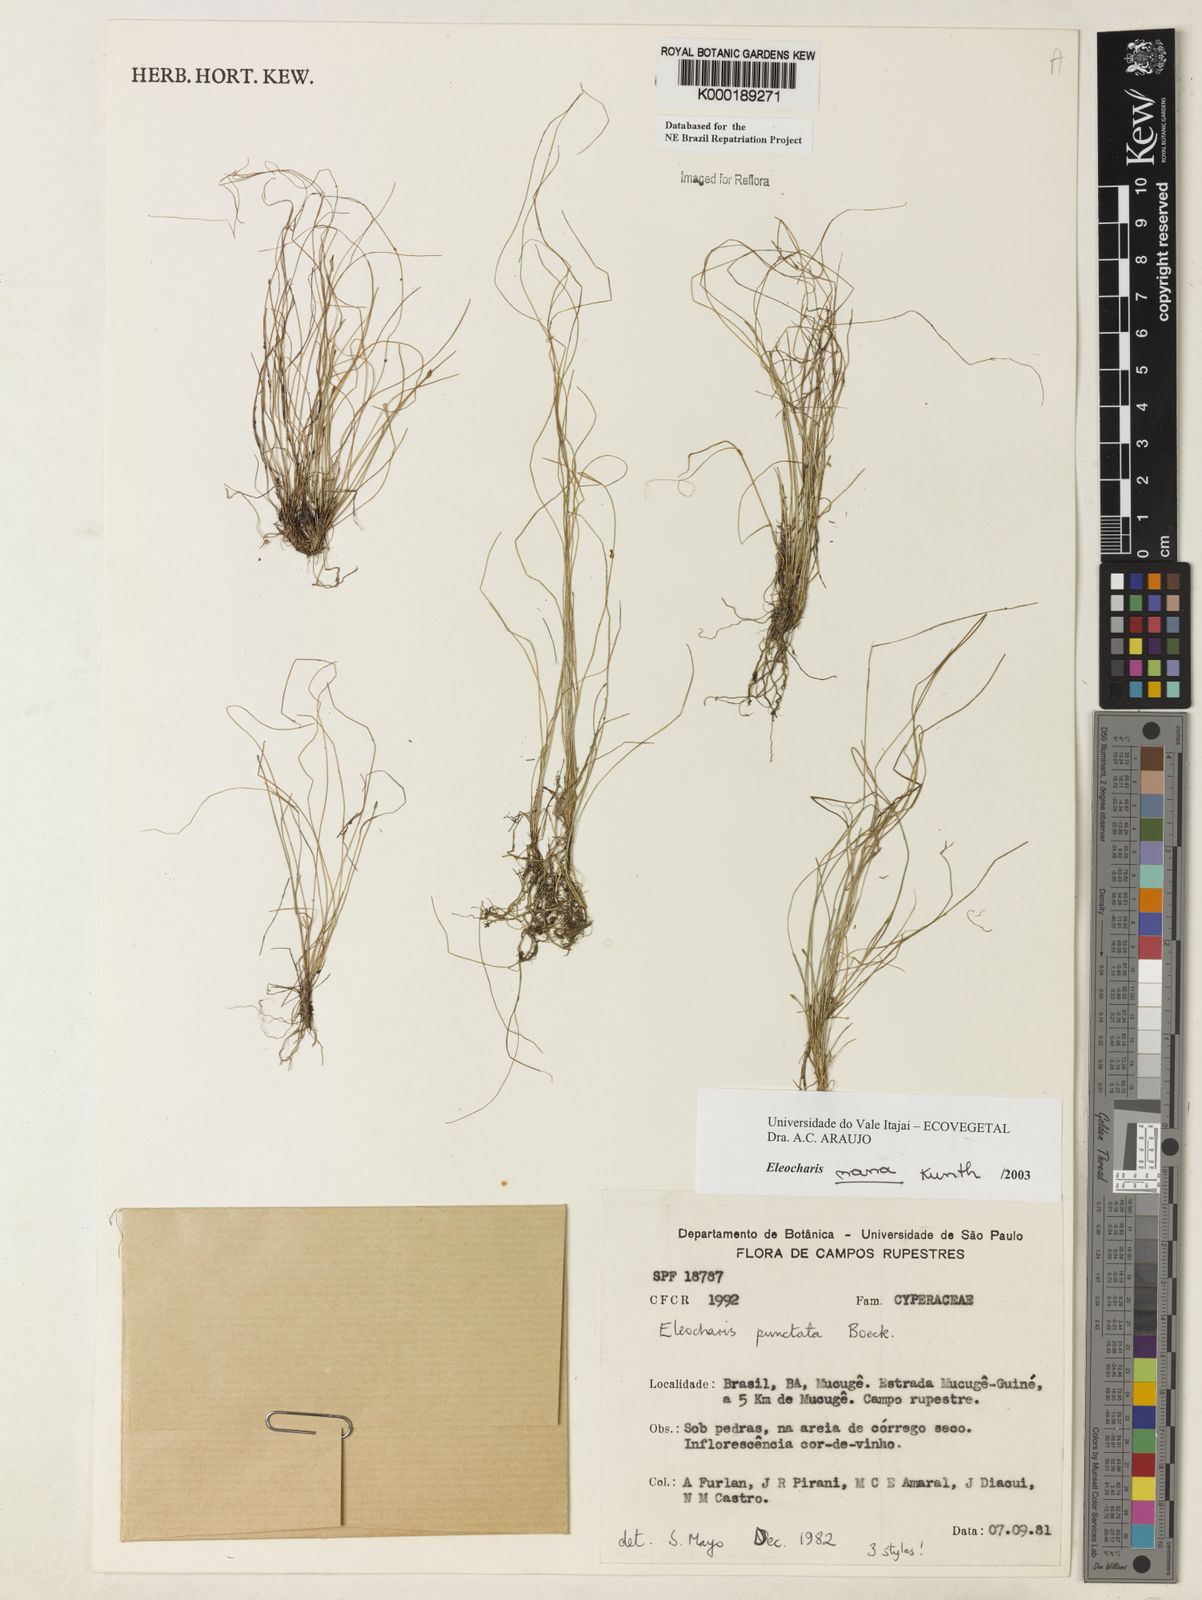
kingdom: Plantae
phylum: Tracheophyta
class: Liliopsida
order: Poales
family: Cyperaceae
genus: Eleocharis
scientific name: Eleocharis nana
